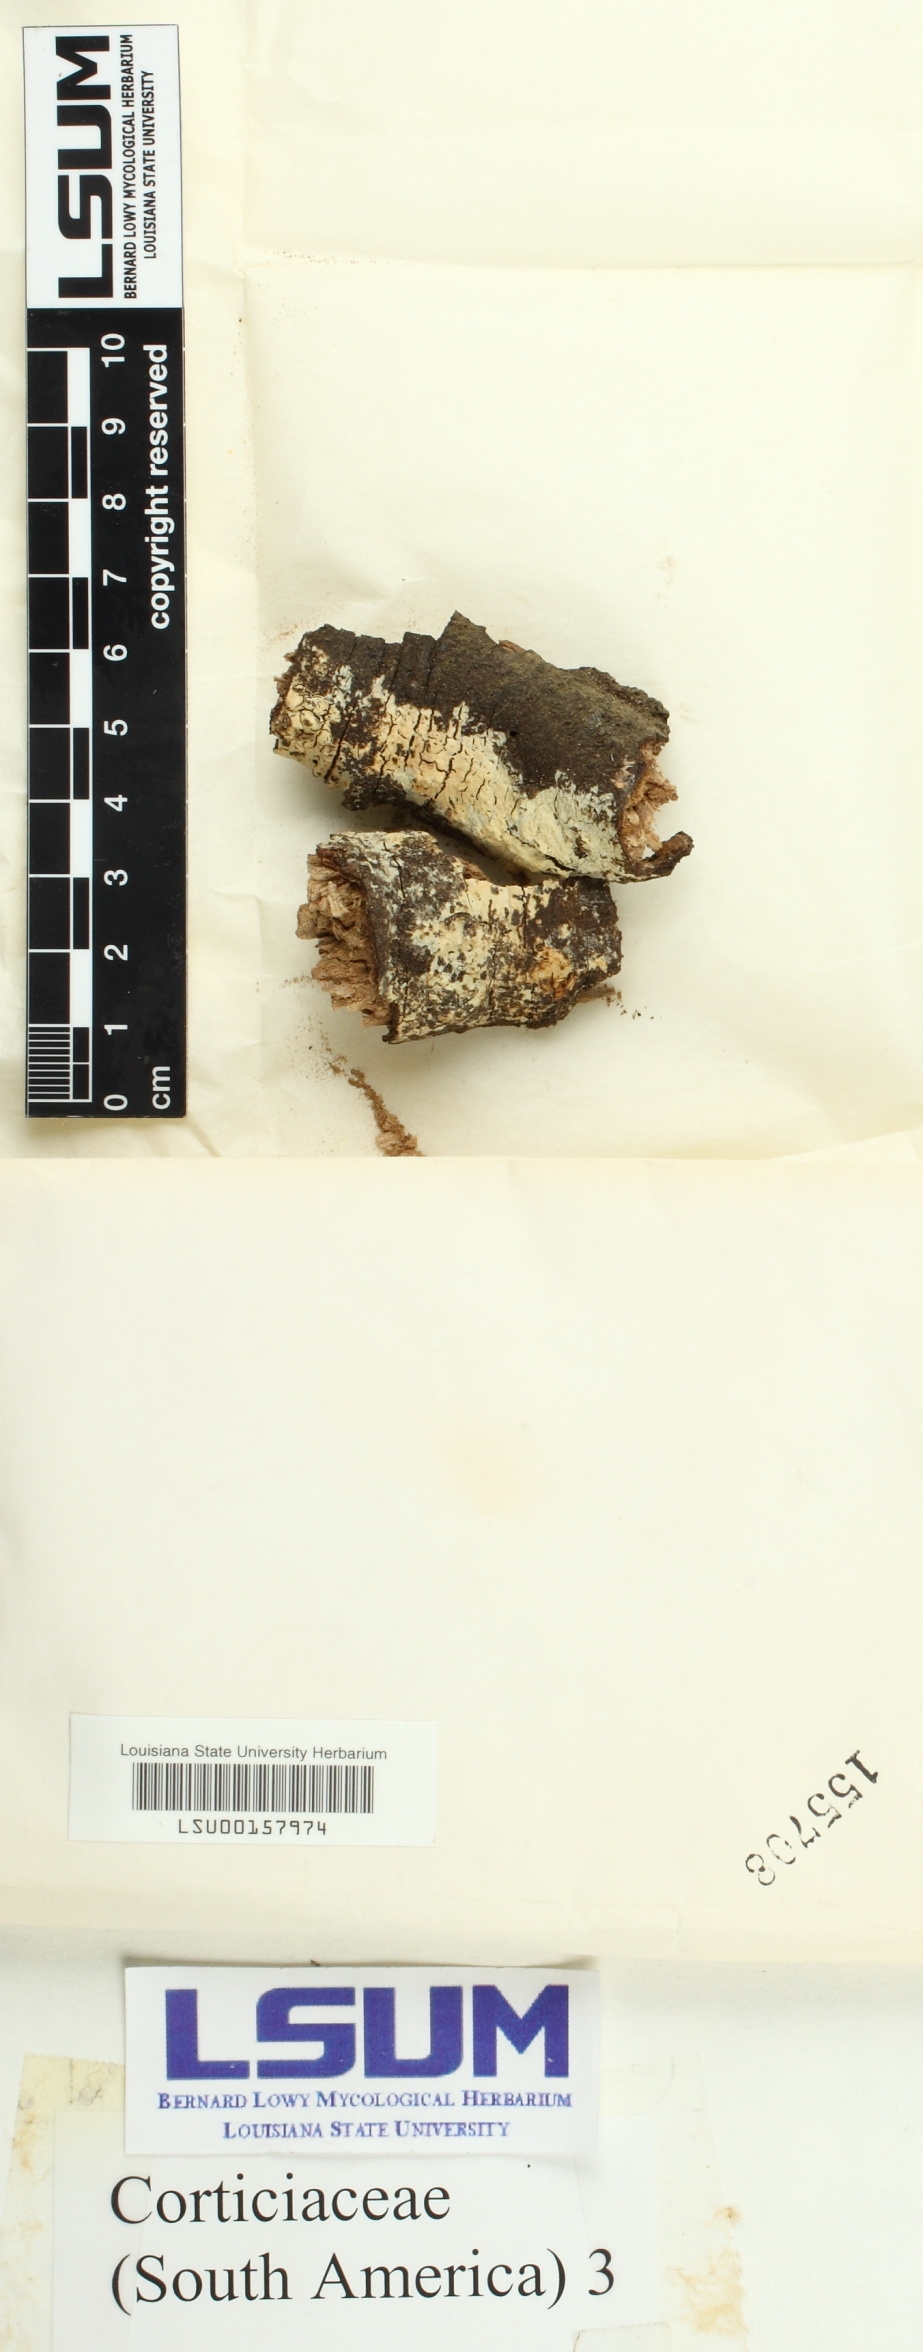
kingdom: Fungi
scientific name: Fungi
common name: Fungi
